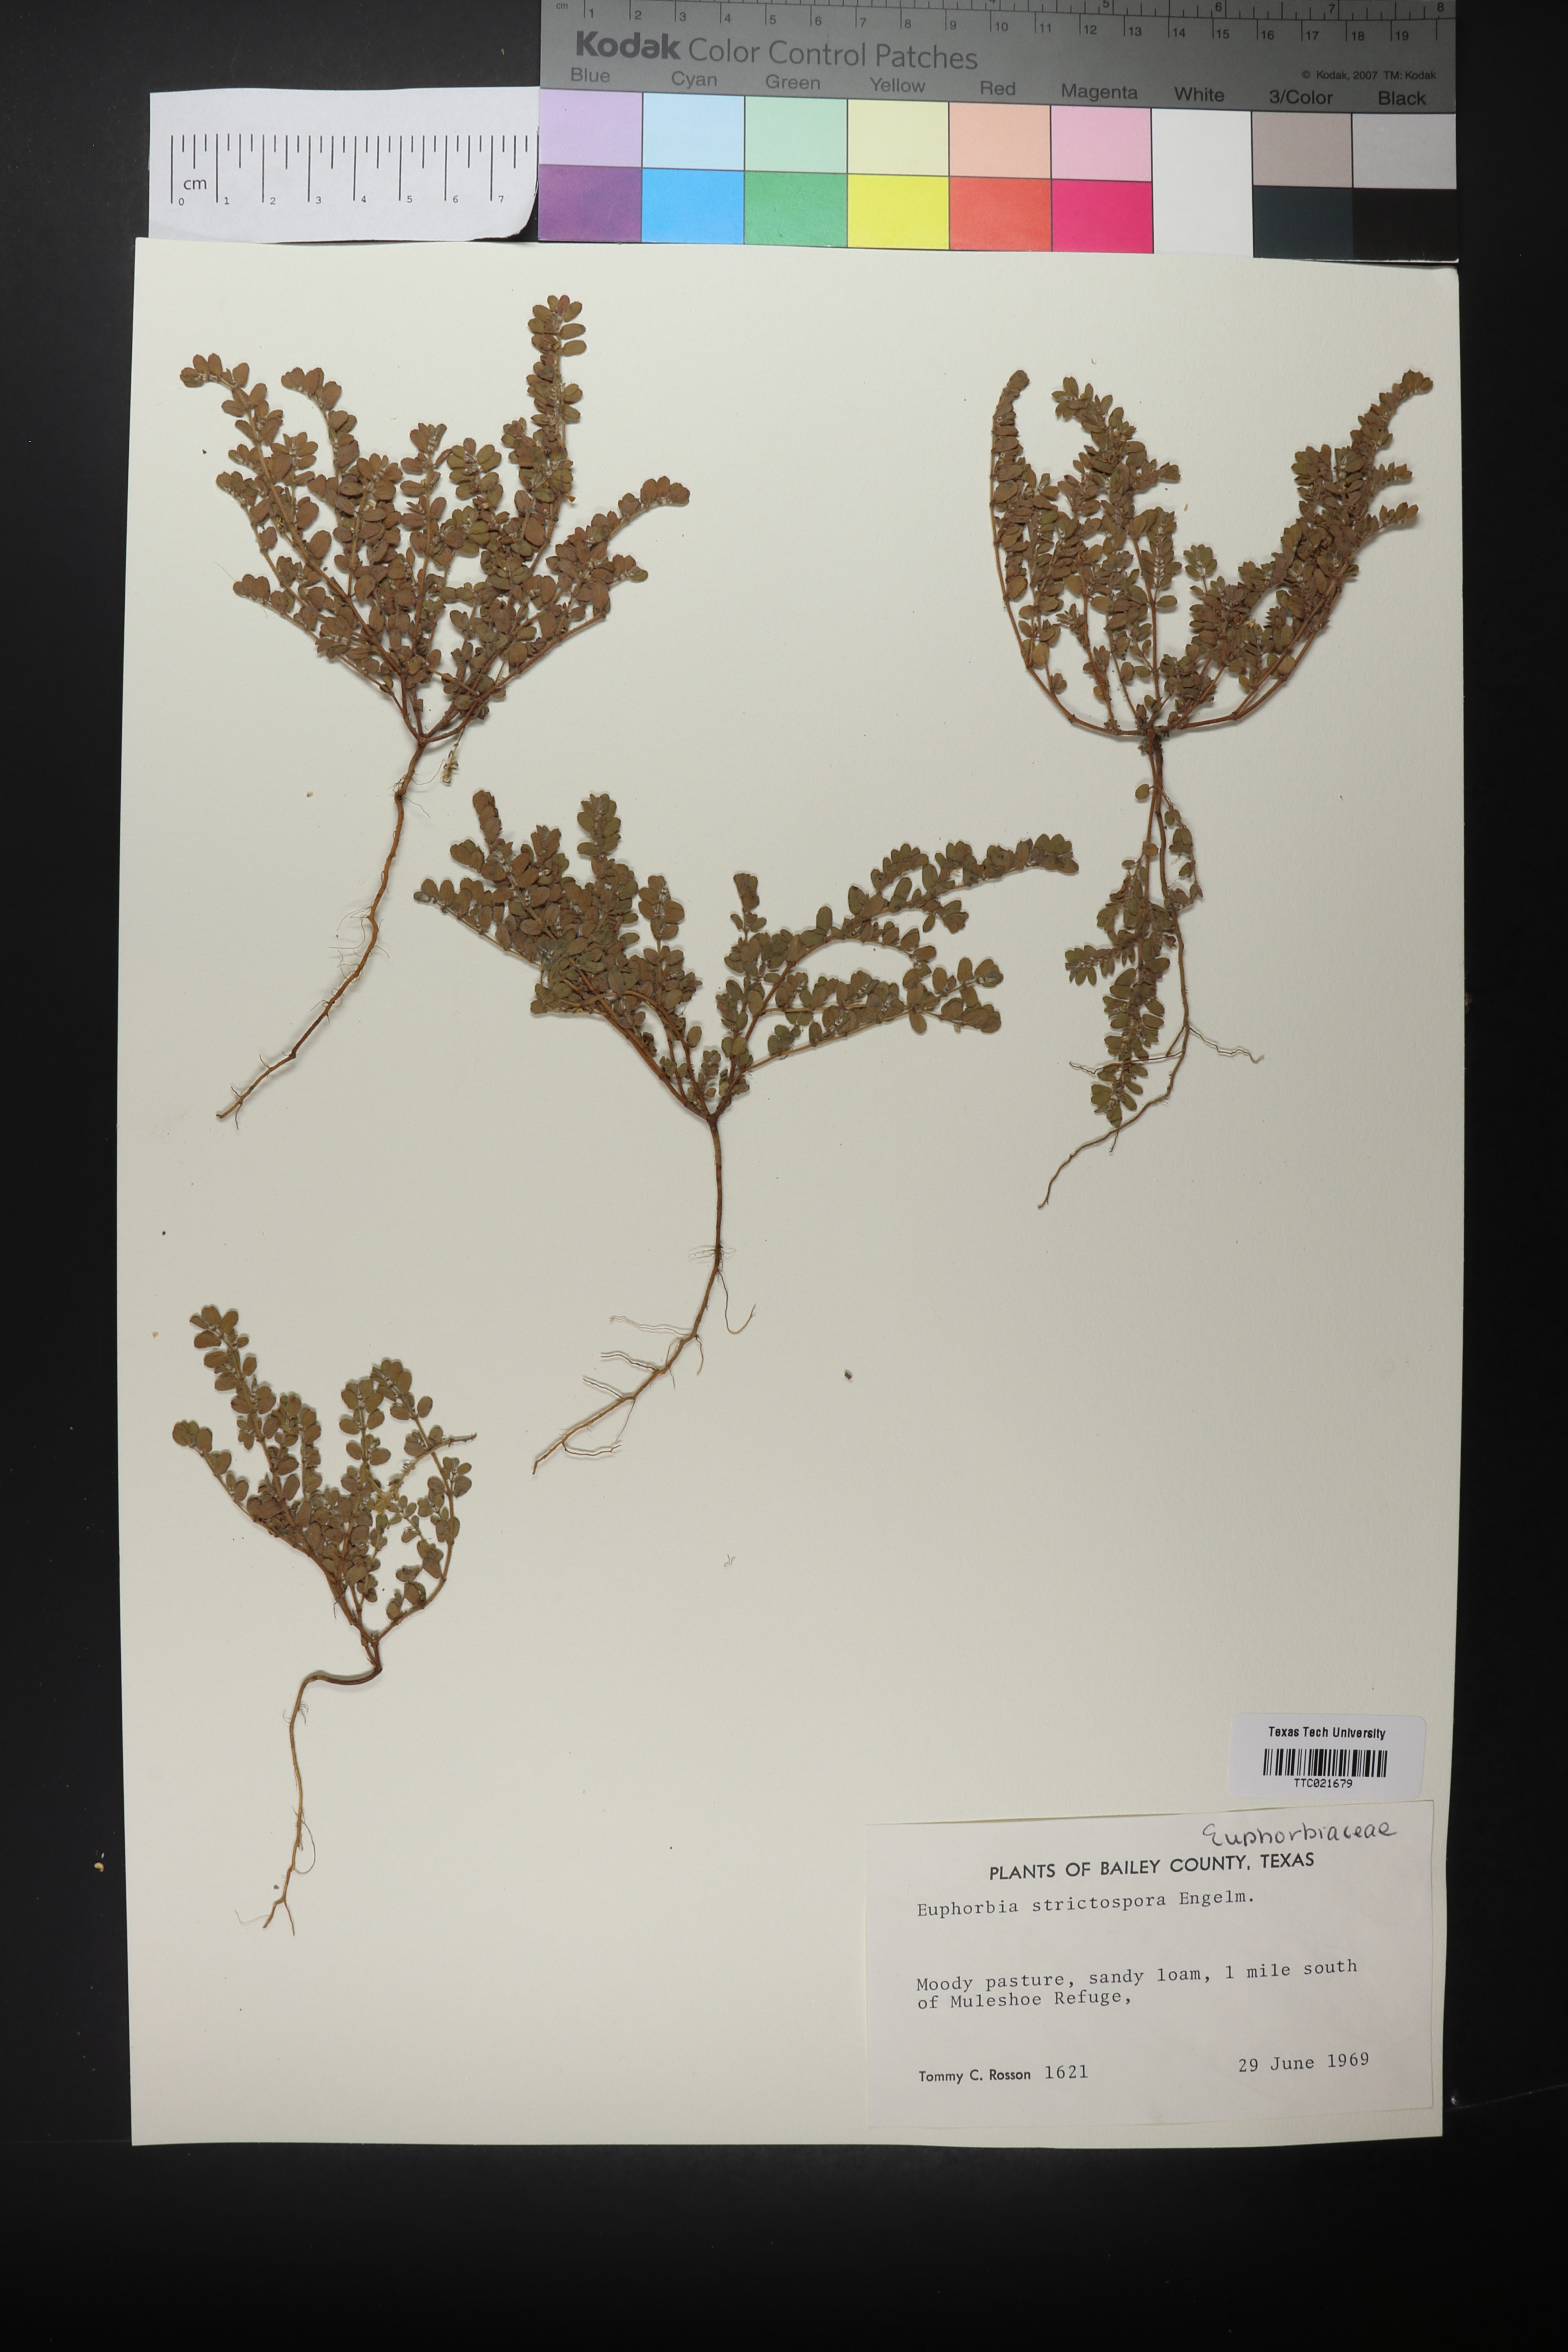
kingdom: Plantae
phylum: Tracheophyta
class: Magnoliopsida
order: Malpighiales
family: Euphorbiaceae
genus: Euphorbia
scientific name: Euphorbia
